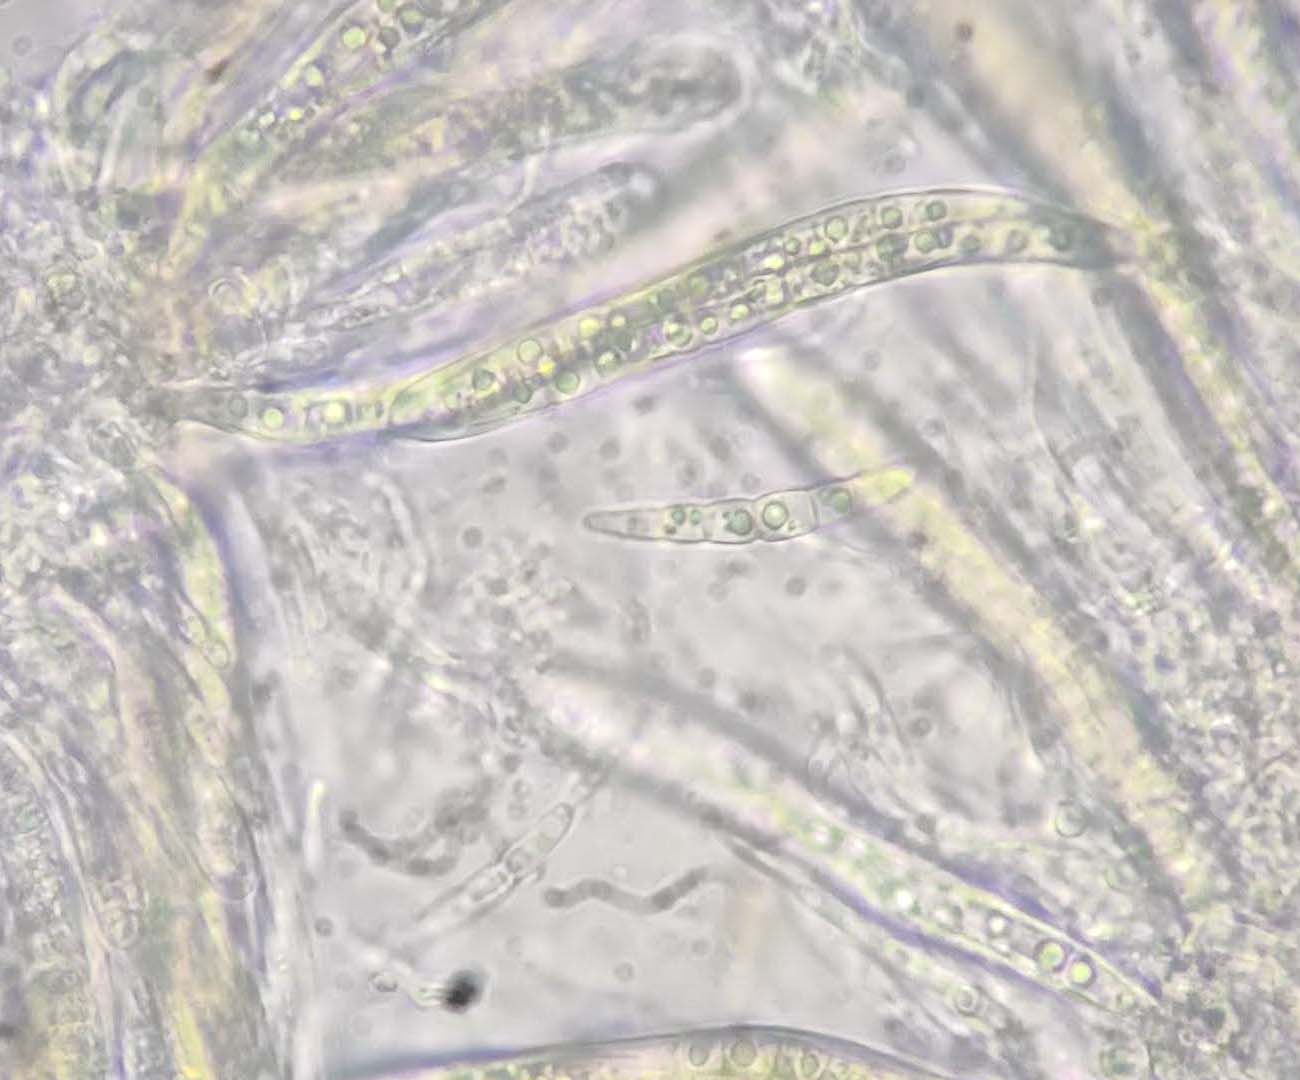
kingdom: Fungi
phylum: Ascomycota
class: Dothideomycetes
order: Pleosporales
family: Phaeosphaeriaceae
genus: Phaeosphaeria
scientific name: Phaeosphaeria sowerbyi
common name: kål-kulkegle
